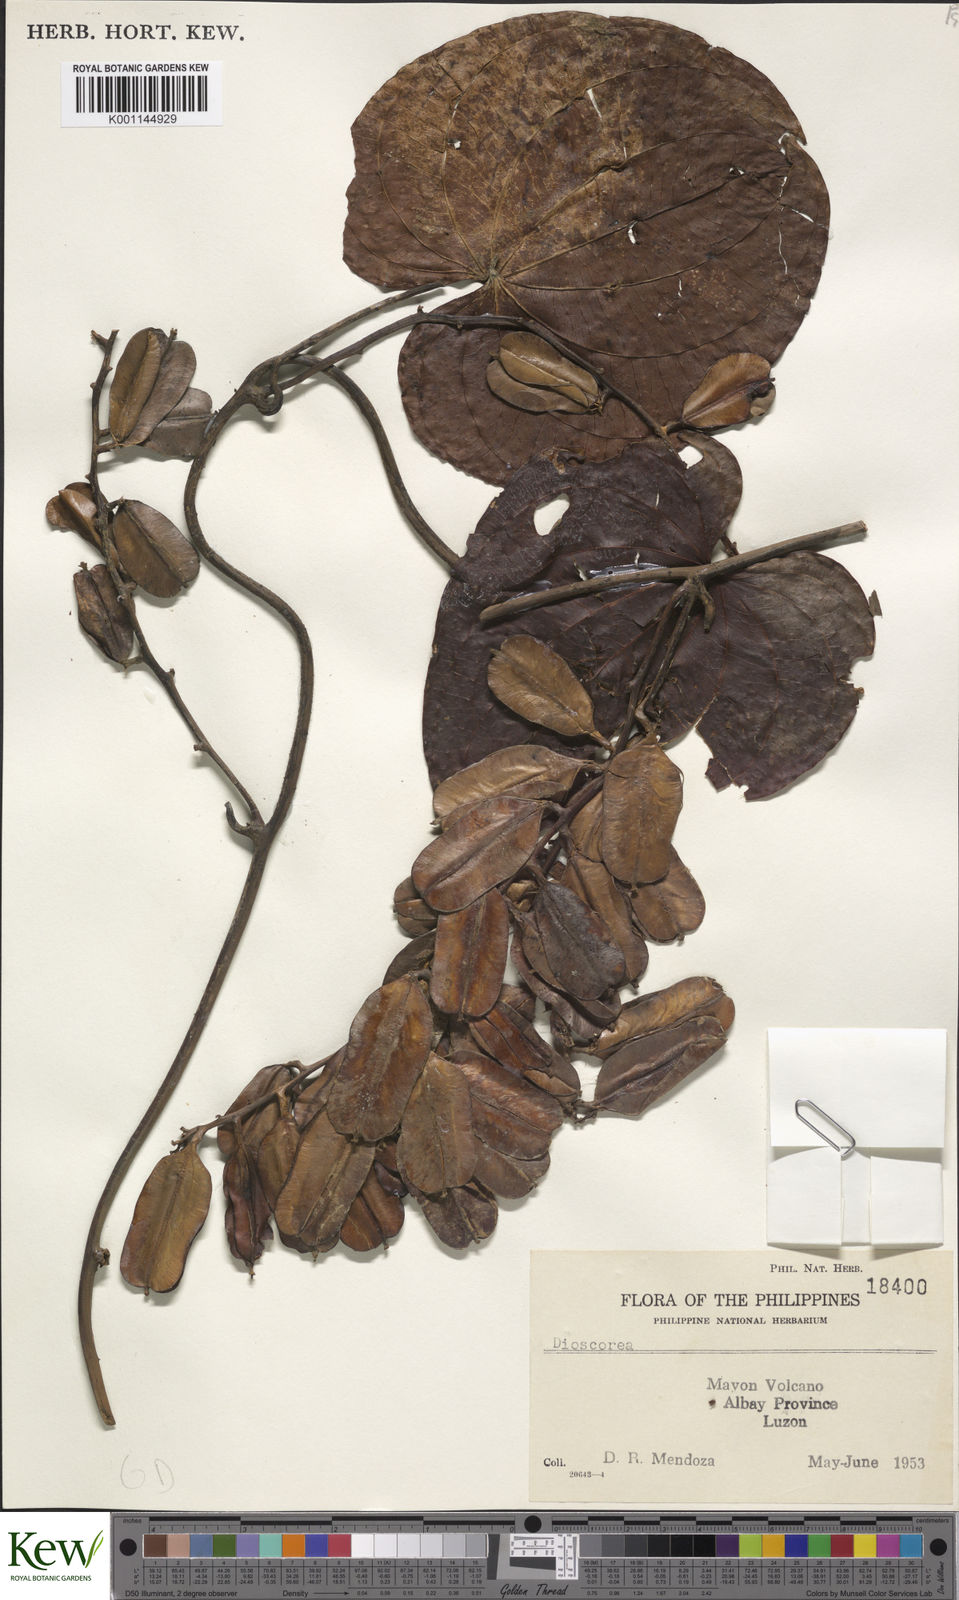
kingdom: Plantae
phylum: Tracheophyta
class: Liliopsida
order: Dioscoreales
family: Dioscoreaceae
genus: Dioscorea
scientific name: Dioscorea
